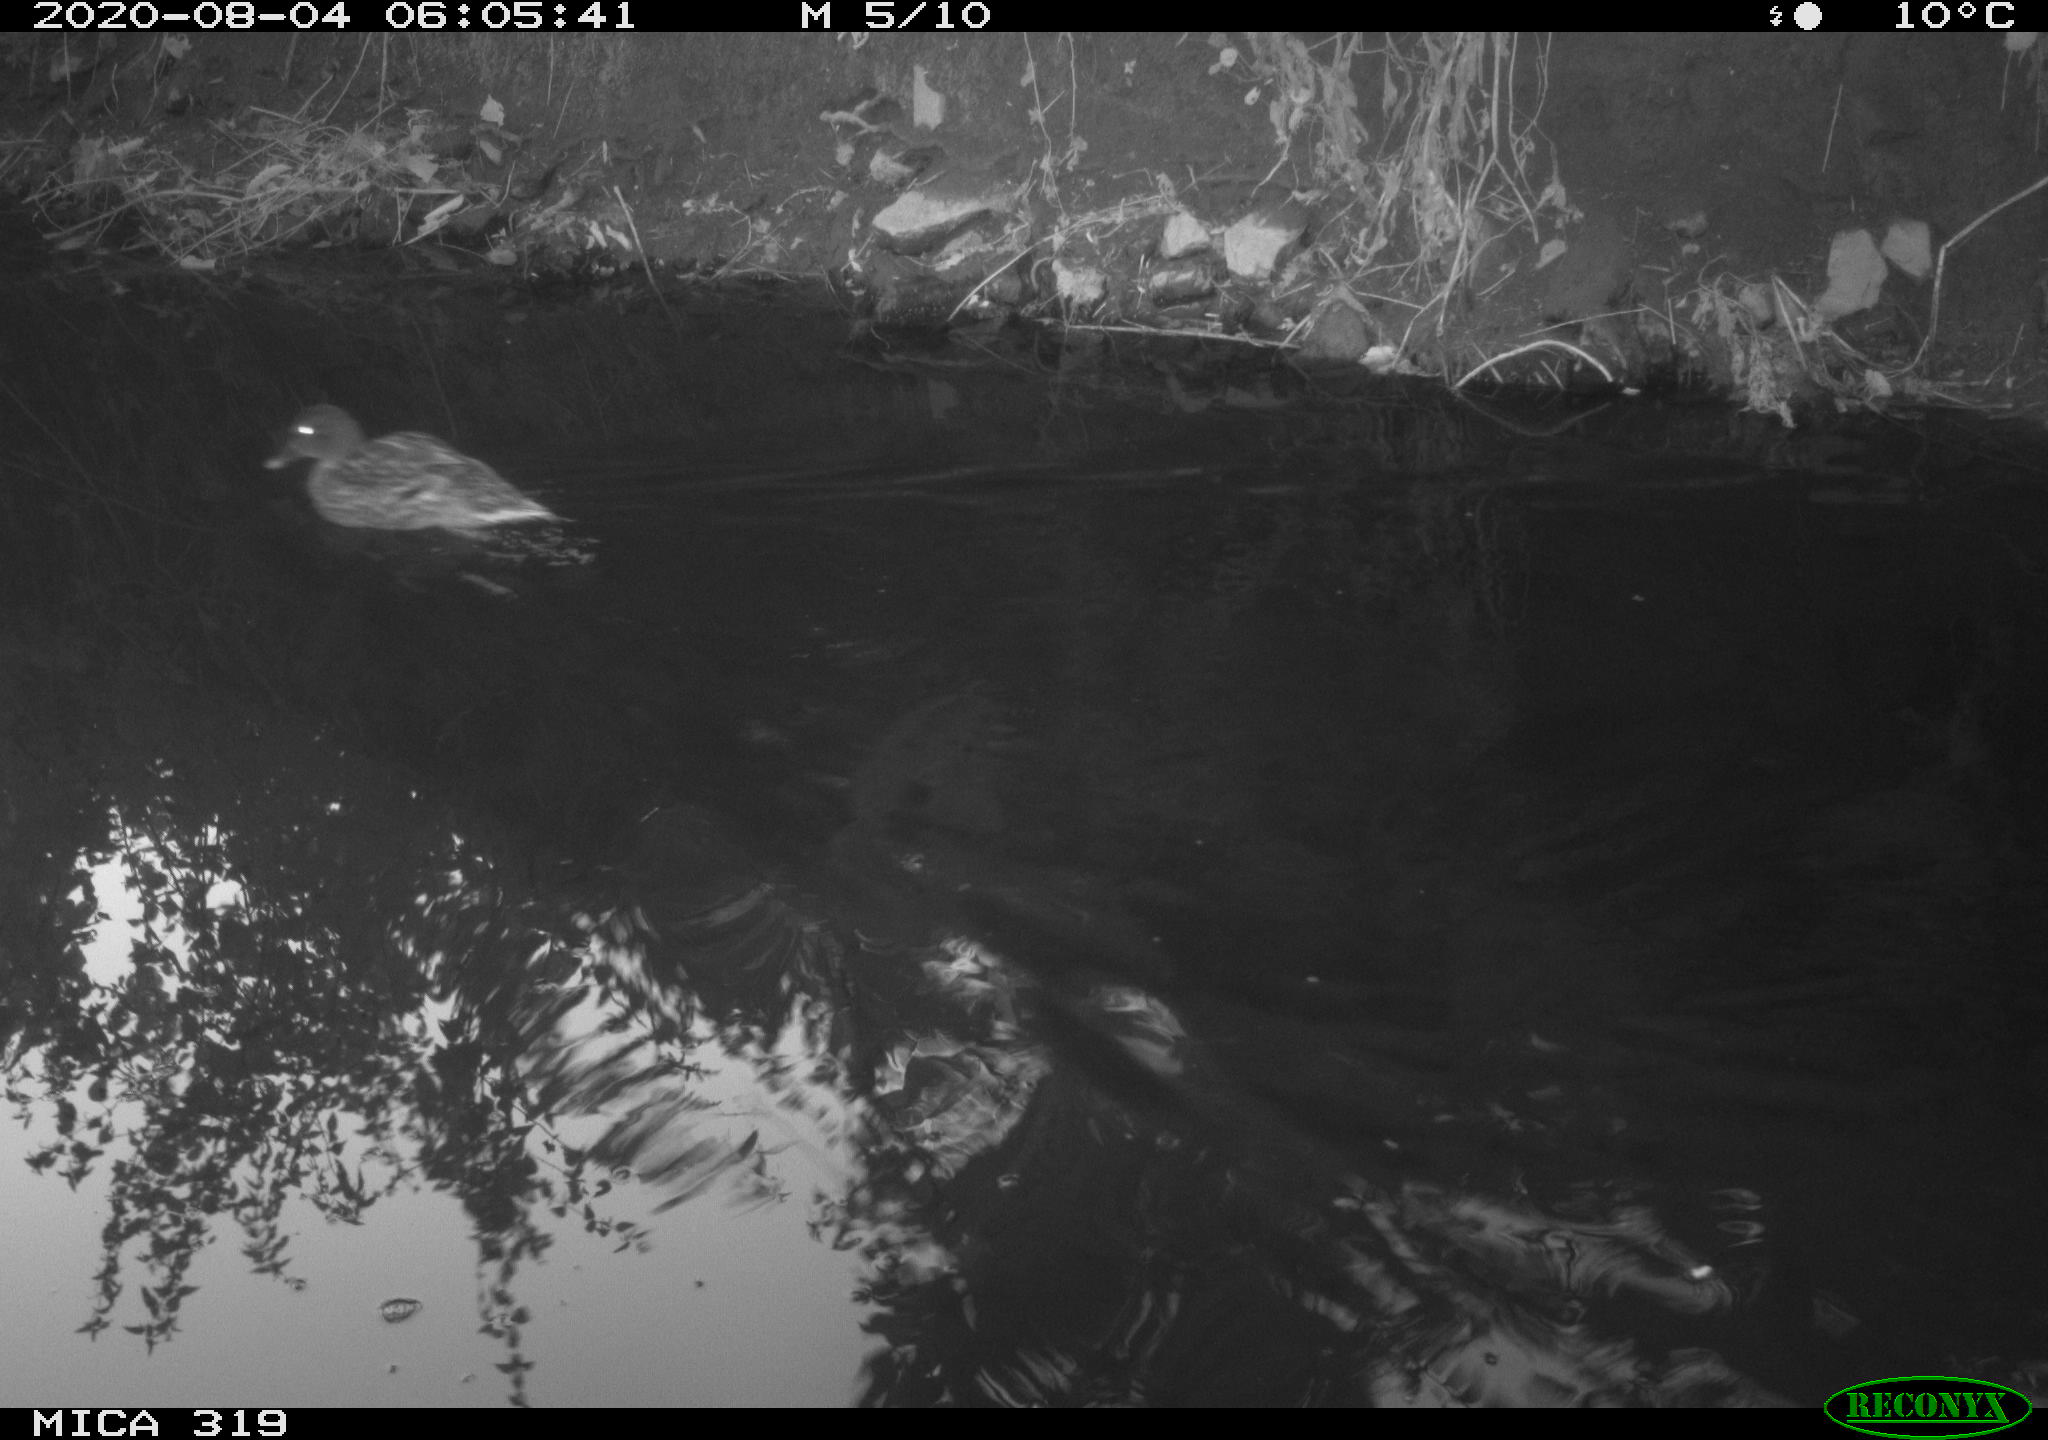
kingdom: Animalia
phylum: Chordata
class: Aves
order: Anseriformes
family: Anatidae
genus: Anas
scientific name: Anas platyrhynchos
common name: Mallard
